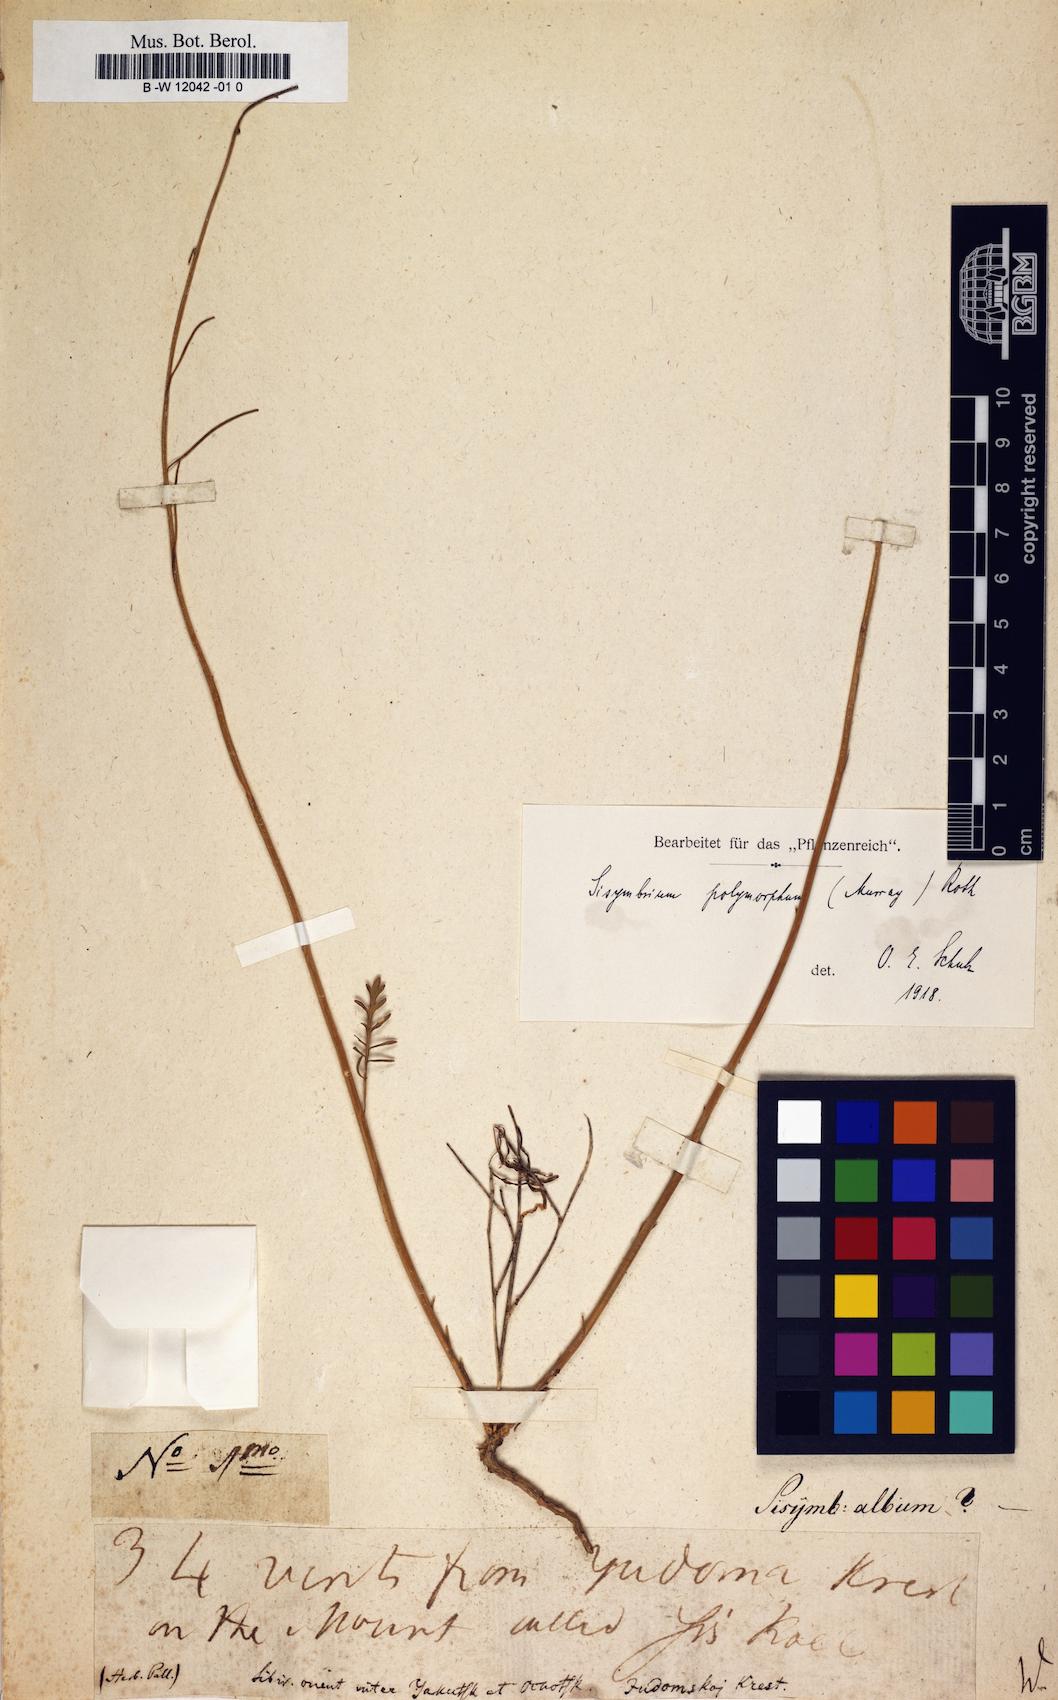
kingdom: Plantae
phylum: Tracheophyta
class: Magnoliopsida
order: Brassicales
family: Brassicaceae
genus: Smelowskia
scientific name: Smelowskia alba
